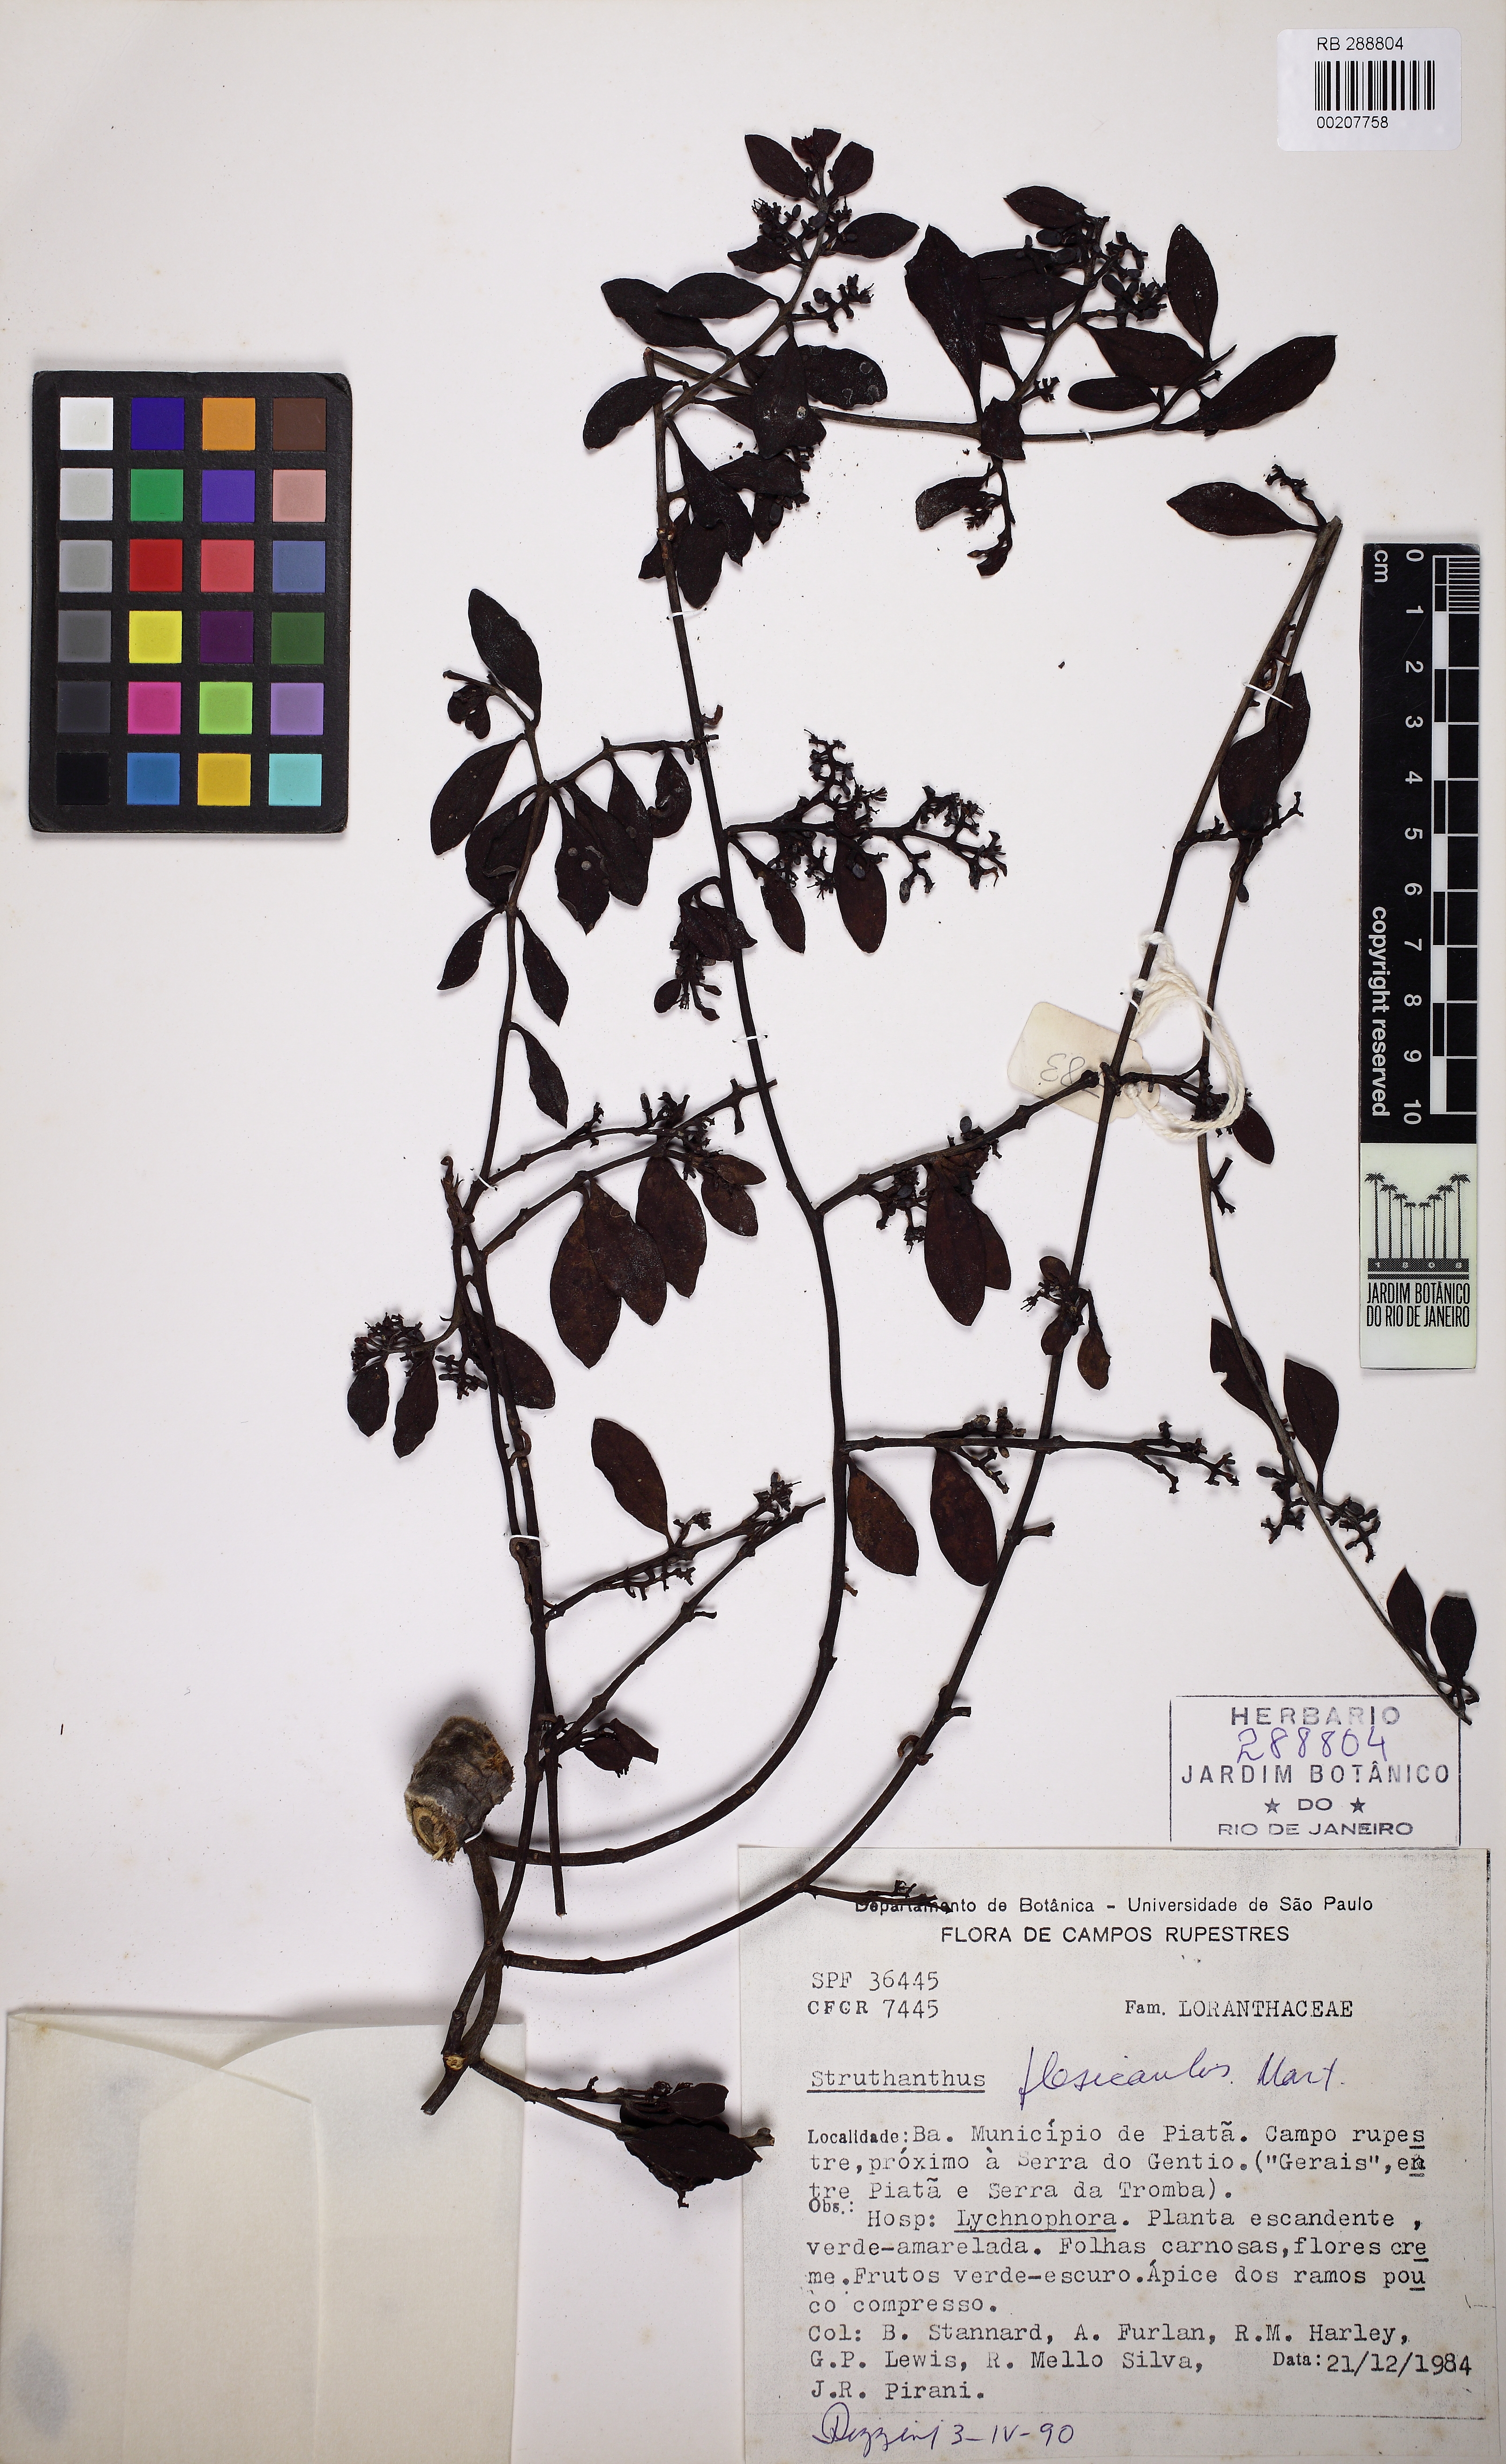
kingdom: Plantae
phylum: Tracheophyta
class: Magnoliopsida
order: Santalales
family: Loranthaceae
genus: Struthanthus
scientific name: Struthanthus flexicaulis
